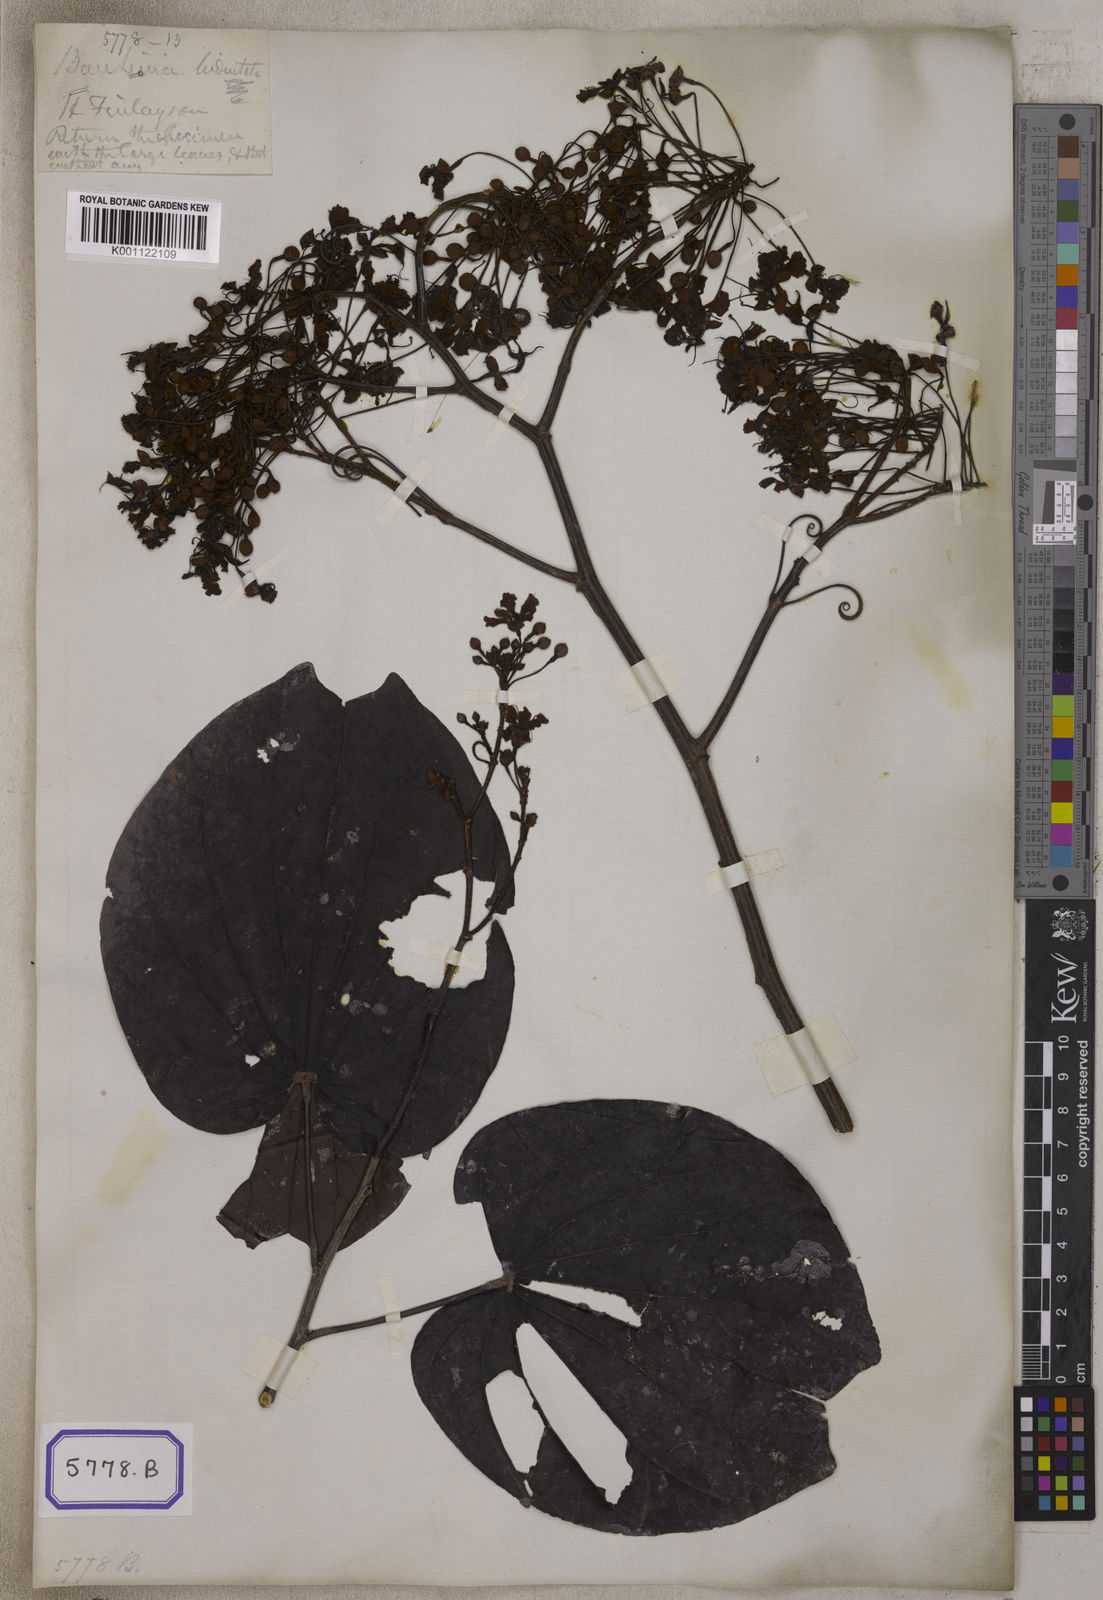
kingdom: Plantae
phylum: Tracheophyta
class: Magnoliopsida
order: Fabales
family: Fabaceae
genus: Phanera
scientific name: Phanera bidentata
